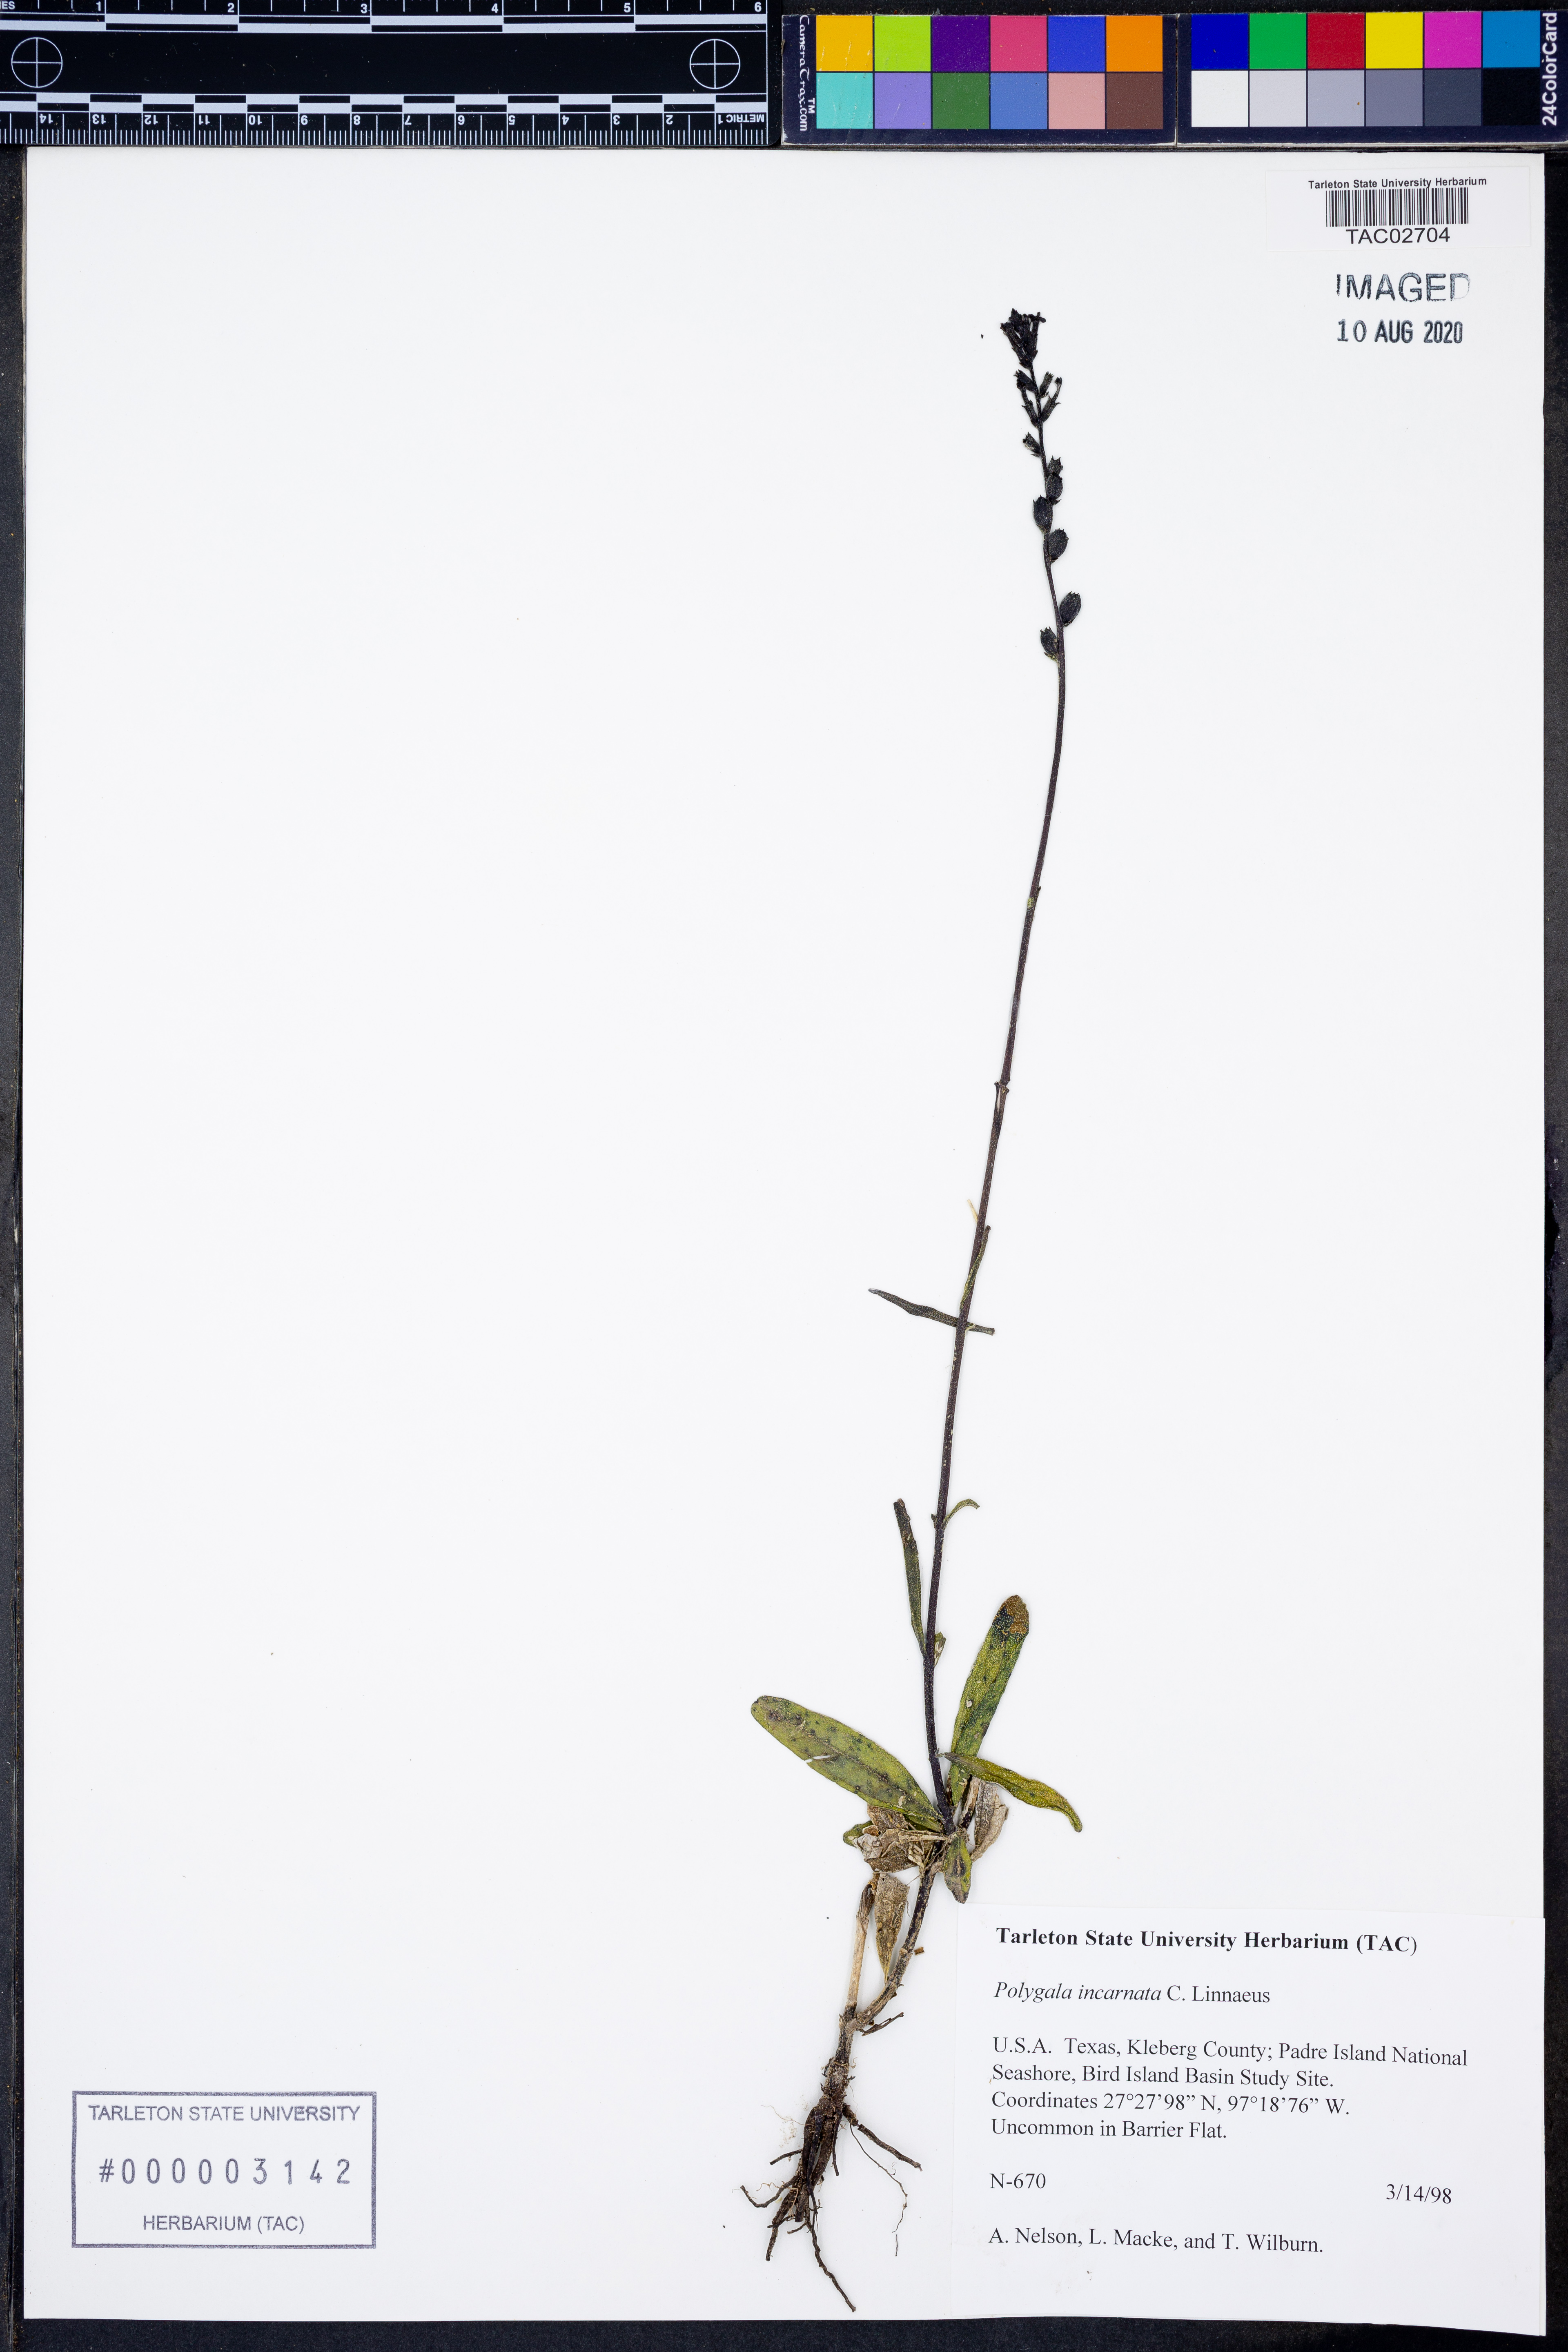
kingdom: Plantae
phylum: Tracheophyta
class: Magnoliopsida
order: Fabales
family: Polygalaceae
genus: Polygala
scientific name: Polygala incarnata
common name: Pink milkwort
